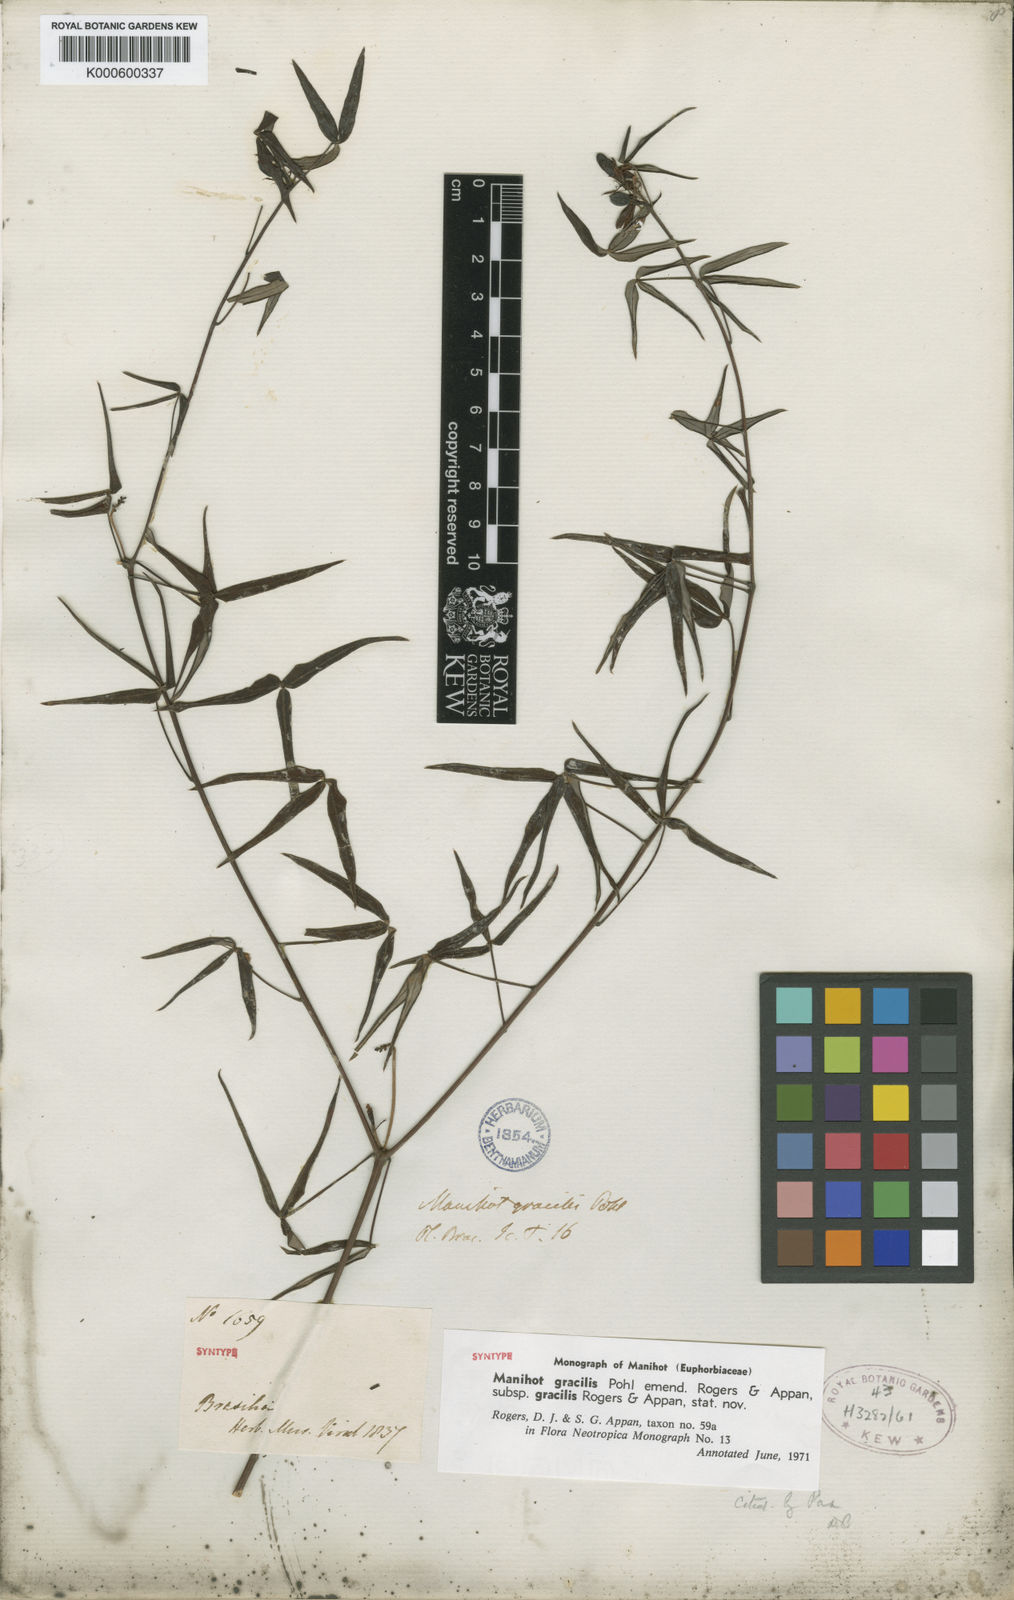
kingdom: Plantae
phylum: Tracheophyta
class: Magnoliopsida
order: Malpighiales
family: Euphorbiaceae
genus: Manihot
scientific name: Manihot gracilis
